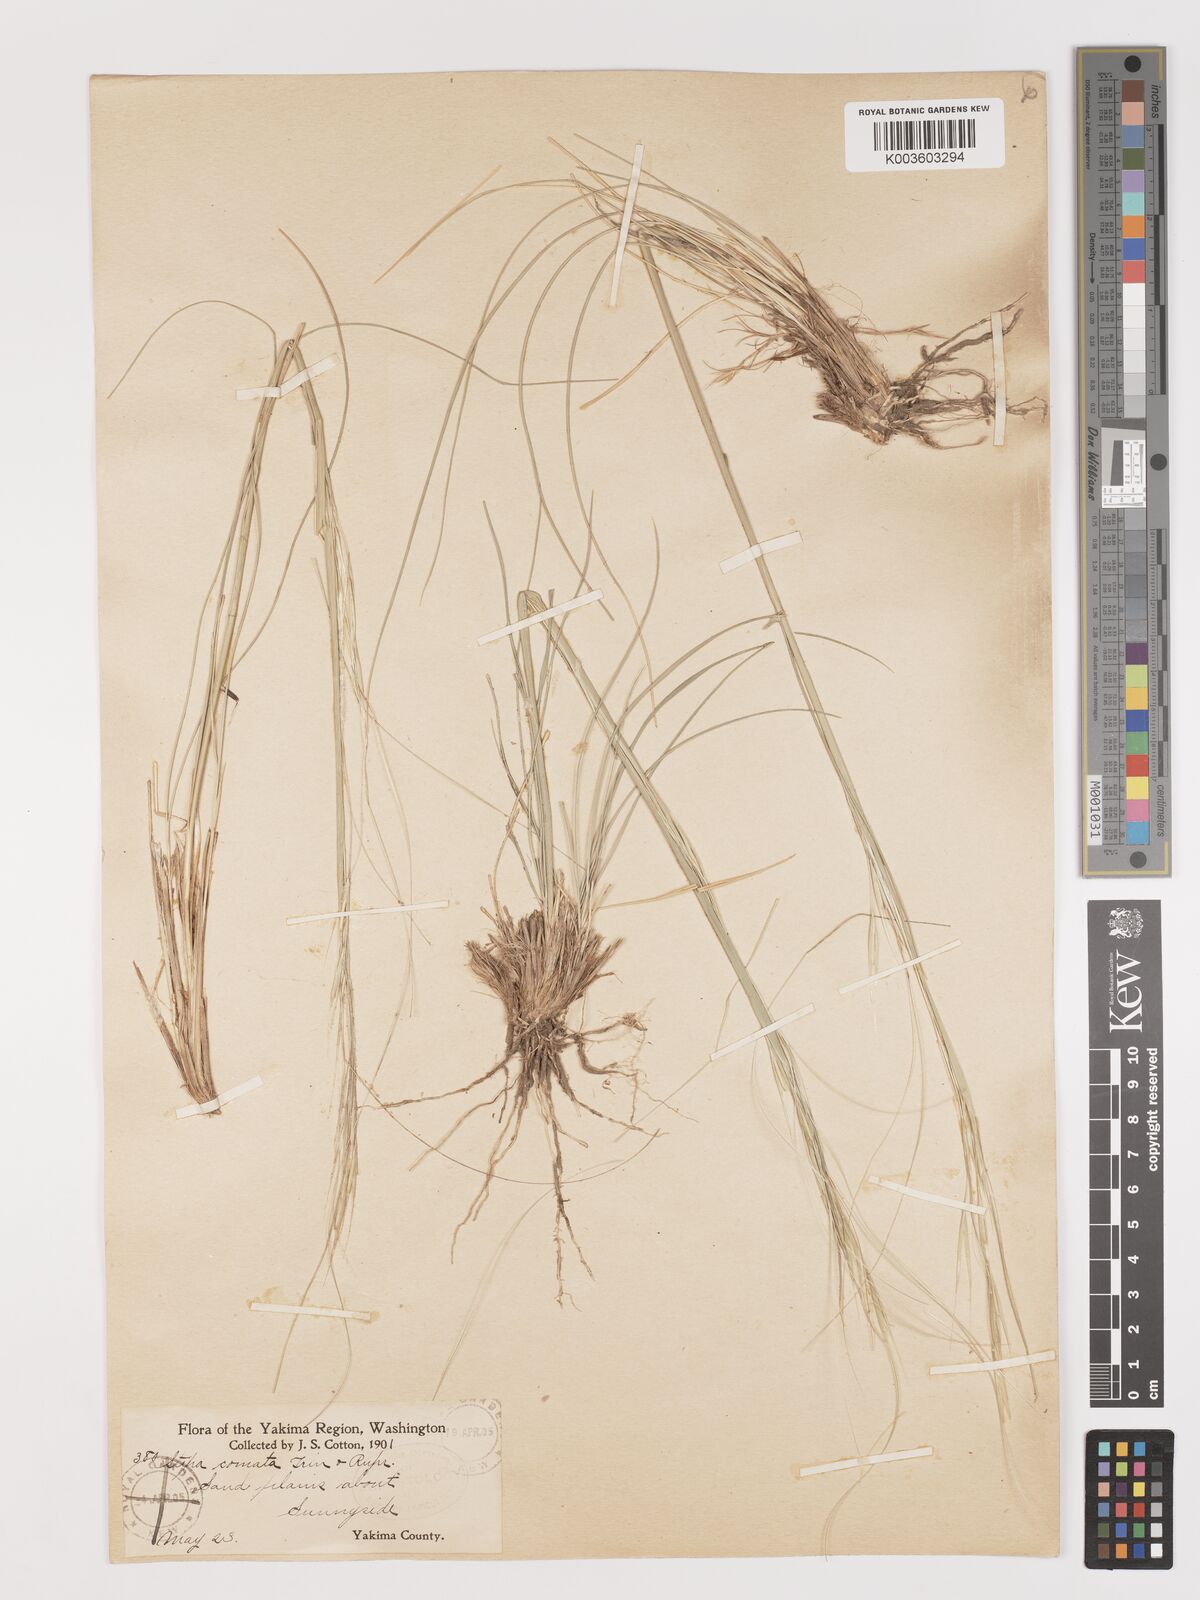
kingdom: Plantae
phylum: Tracheophyta
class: Liliopsida
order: Poales
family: Poaceae
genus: Stipa
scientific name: Stipa
